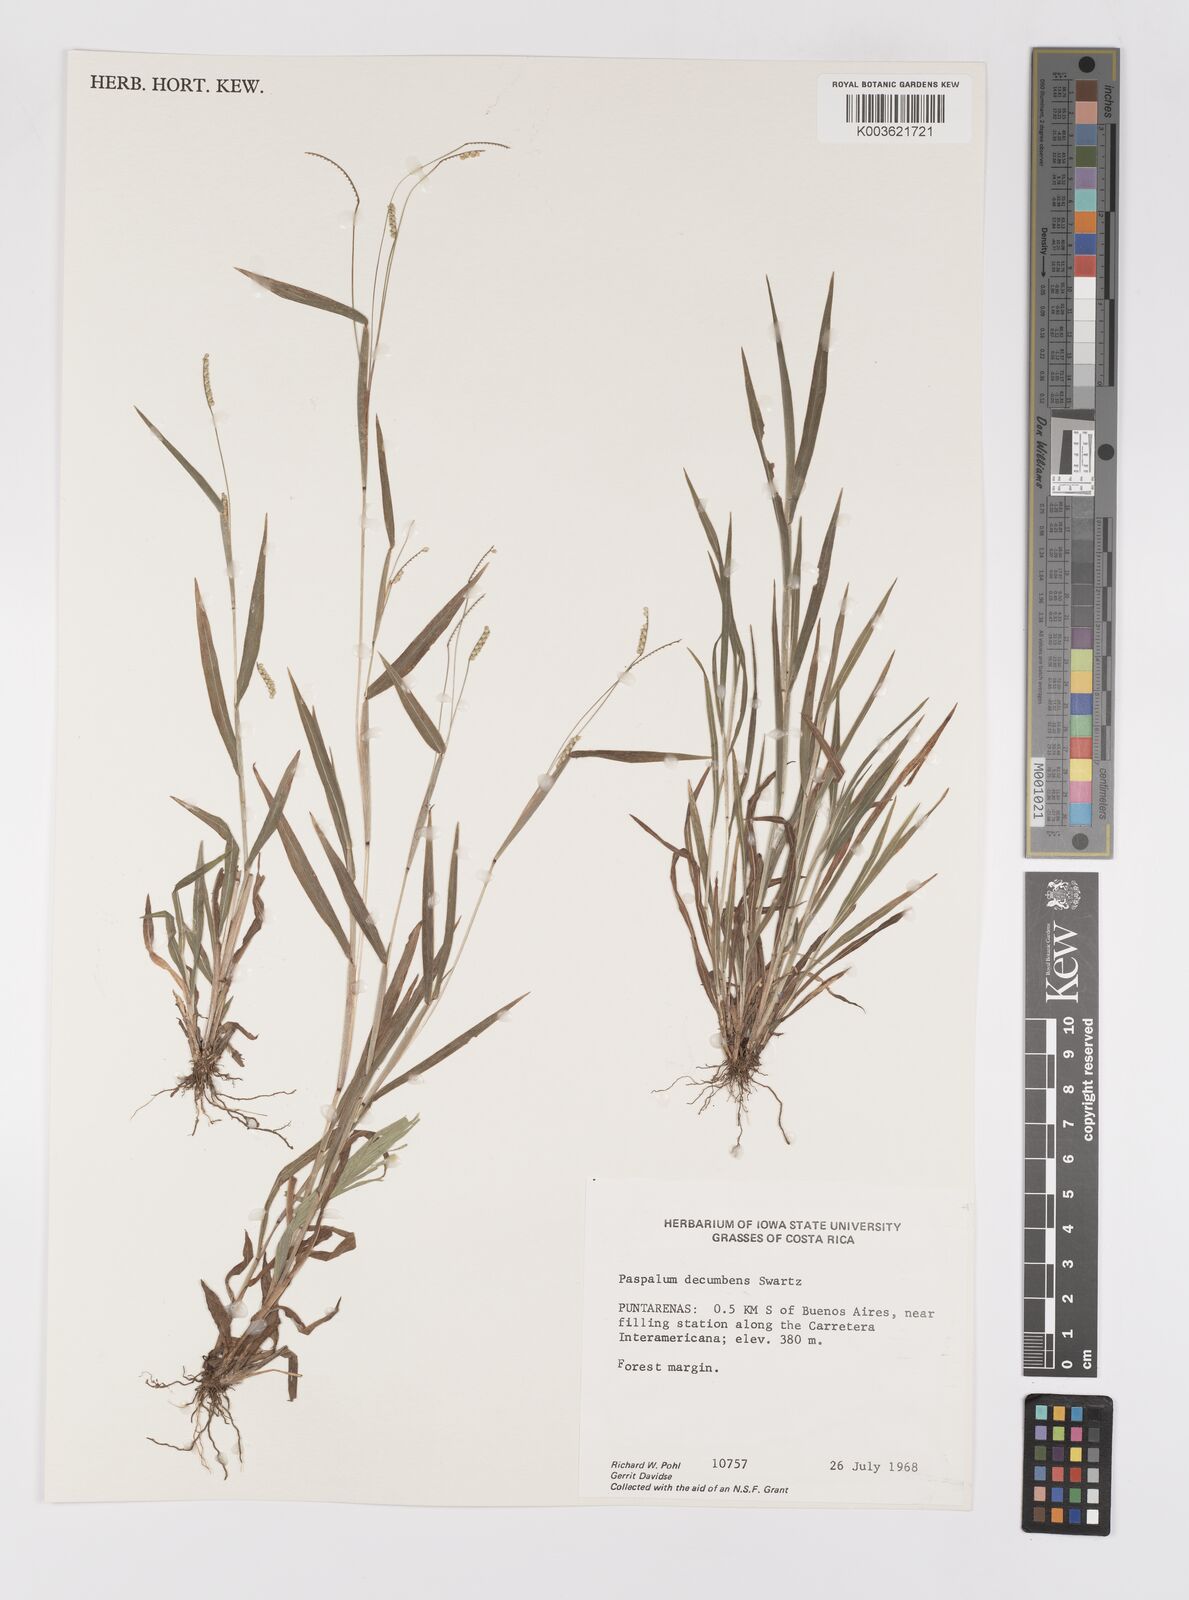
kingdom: Plantae
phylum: Tracheophyta
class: Liliopsida
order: Poales
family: Poaceae
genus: Paspalum
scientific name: Paspalum
